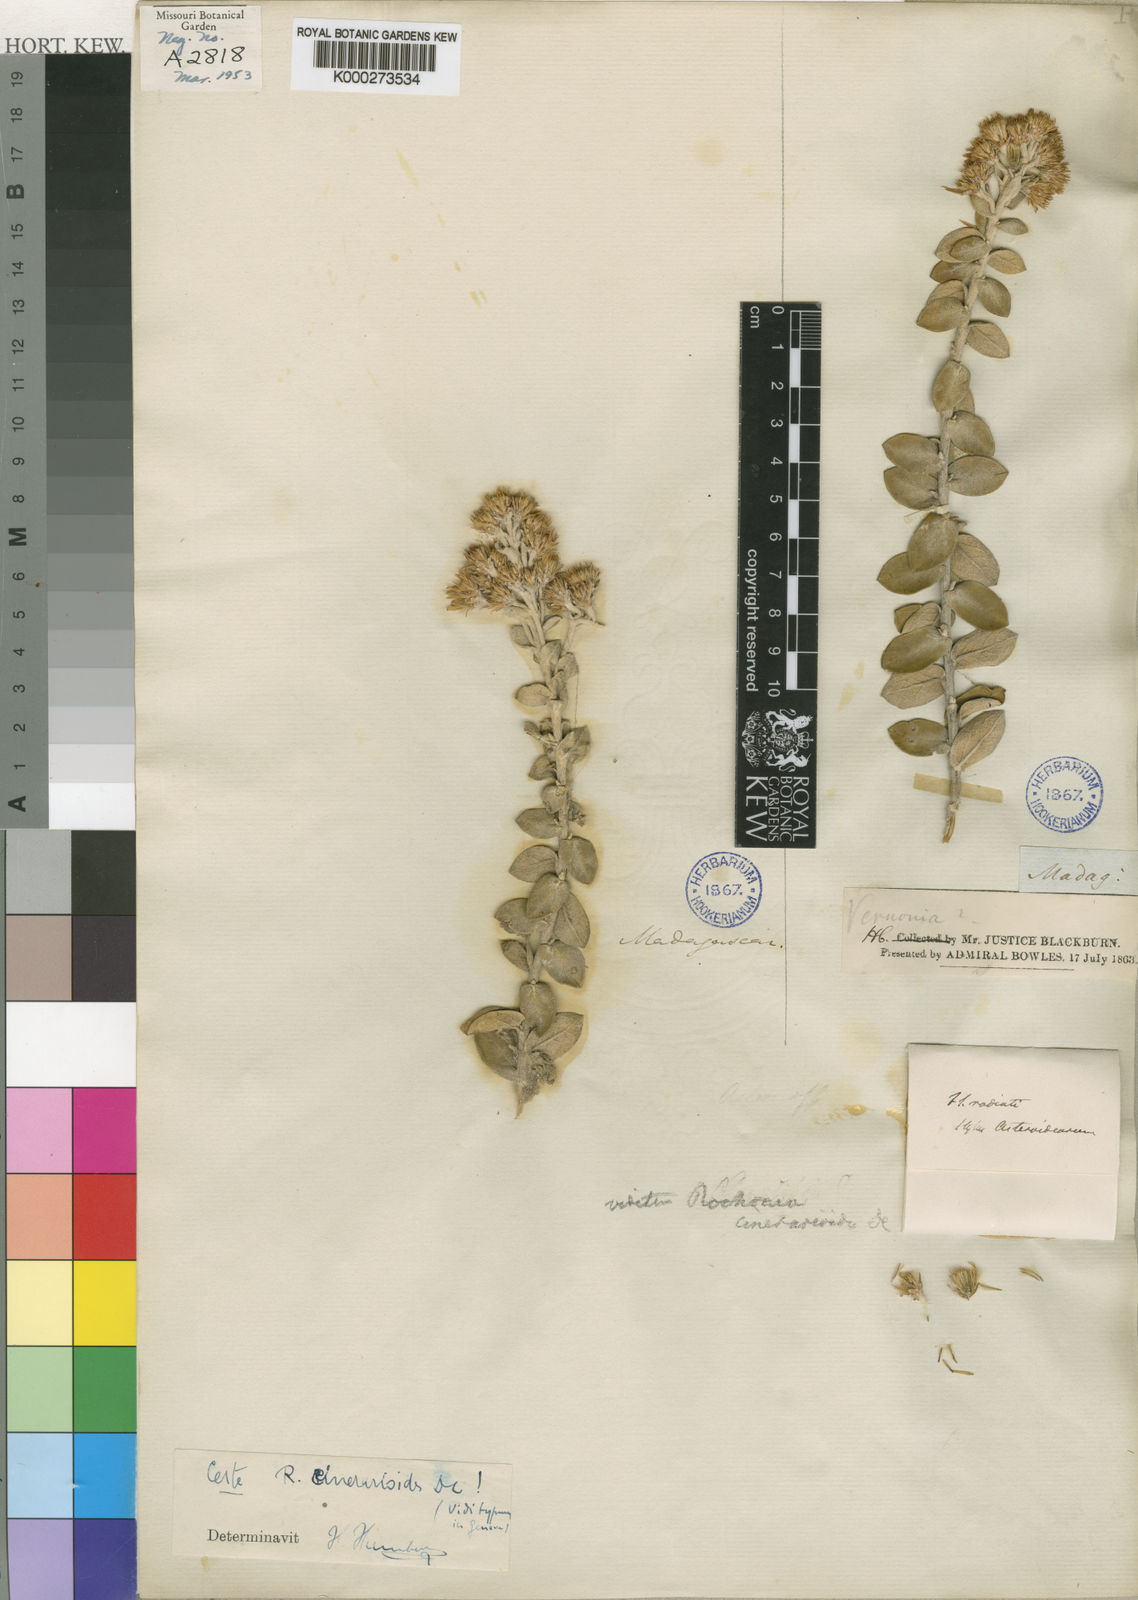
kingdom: Plantae
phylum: Tracheophyta
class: Magnoliopsida
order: Asterales
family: Asteraceae
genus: Rochonia
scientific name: Rochonia cinerarioides
